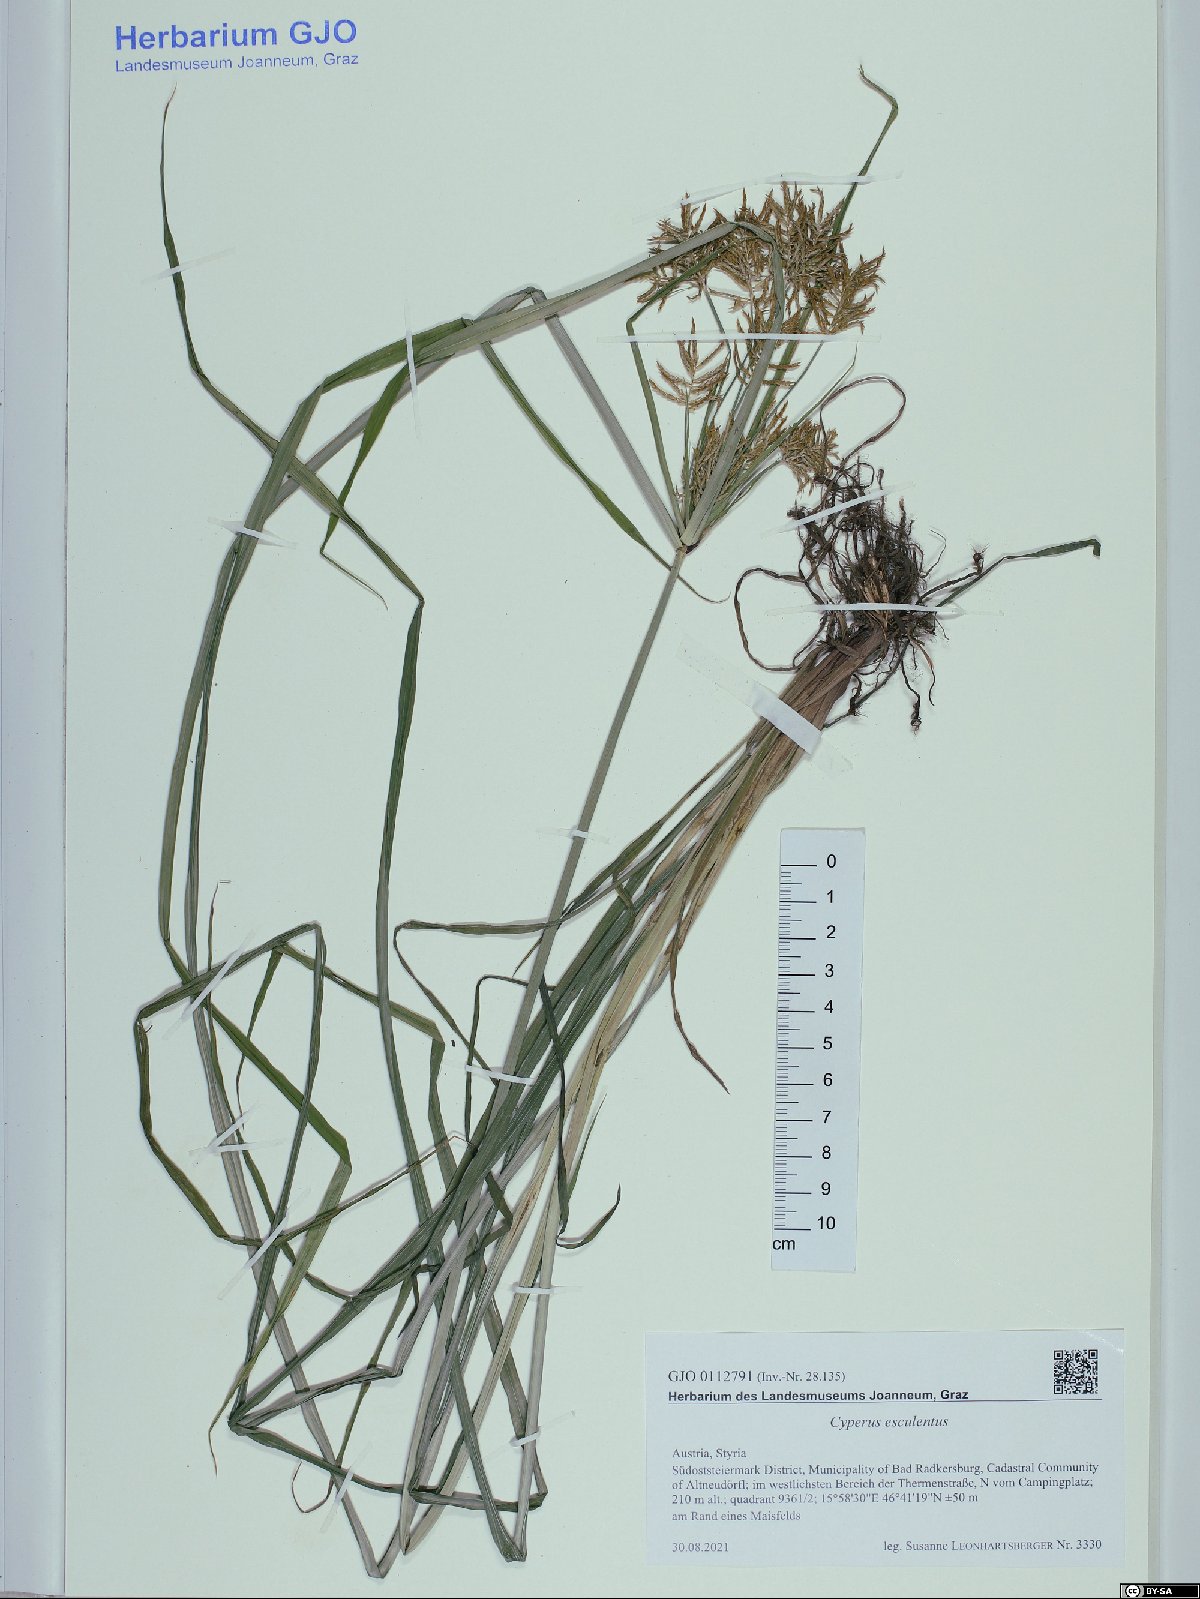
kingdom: Plantae
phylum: Tracheophyta
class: Liliopsida
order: Poales
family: Cyperaceae
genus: Cyperus
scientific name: Cyperus esculentus
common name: Yellow nutsedge
